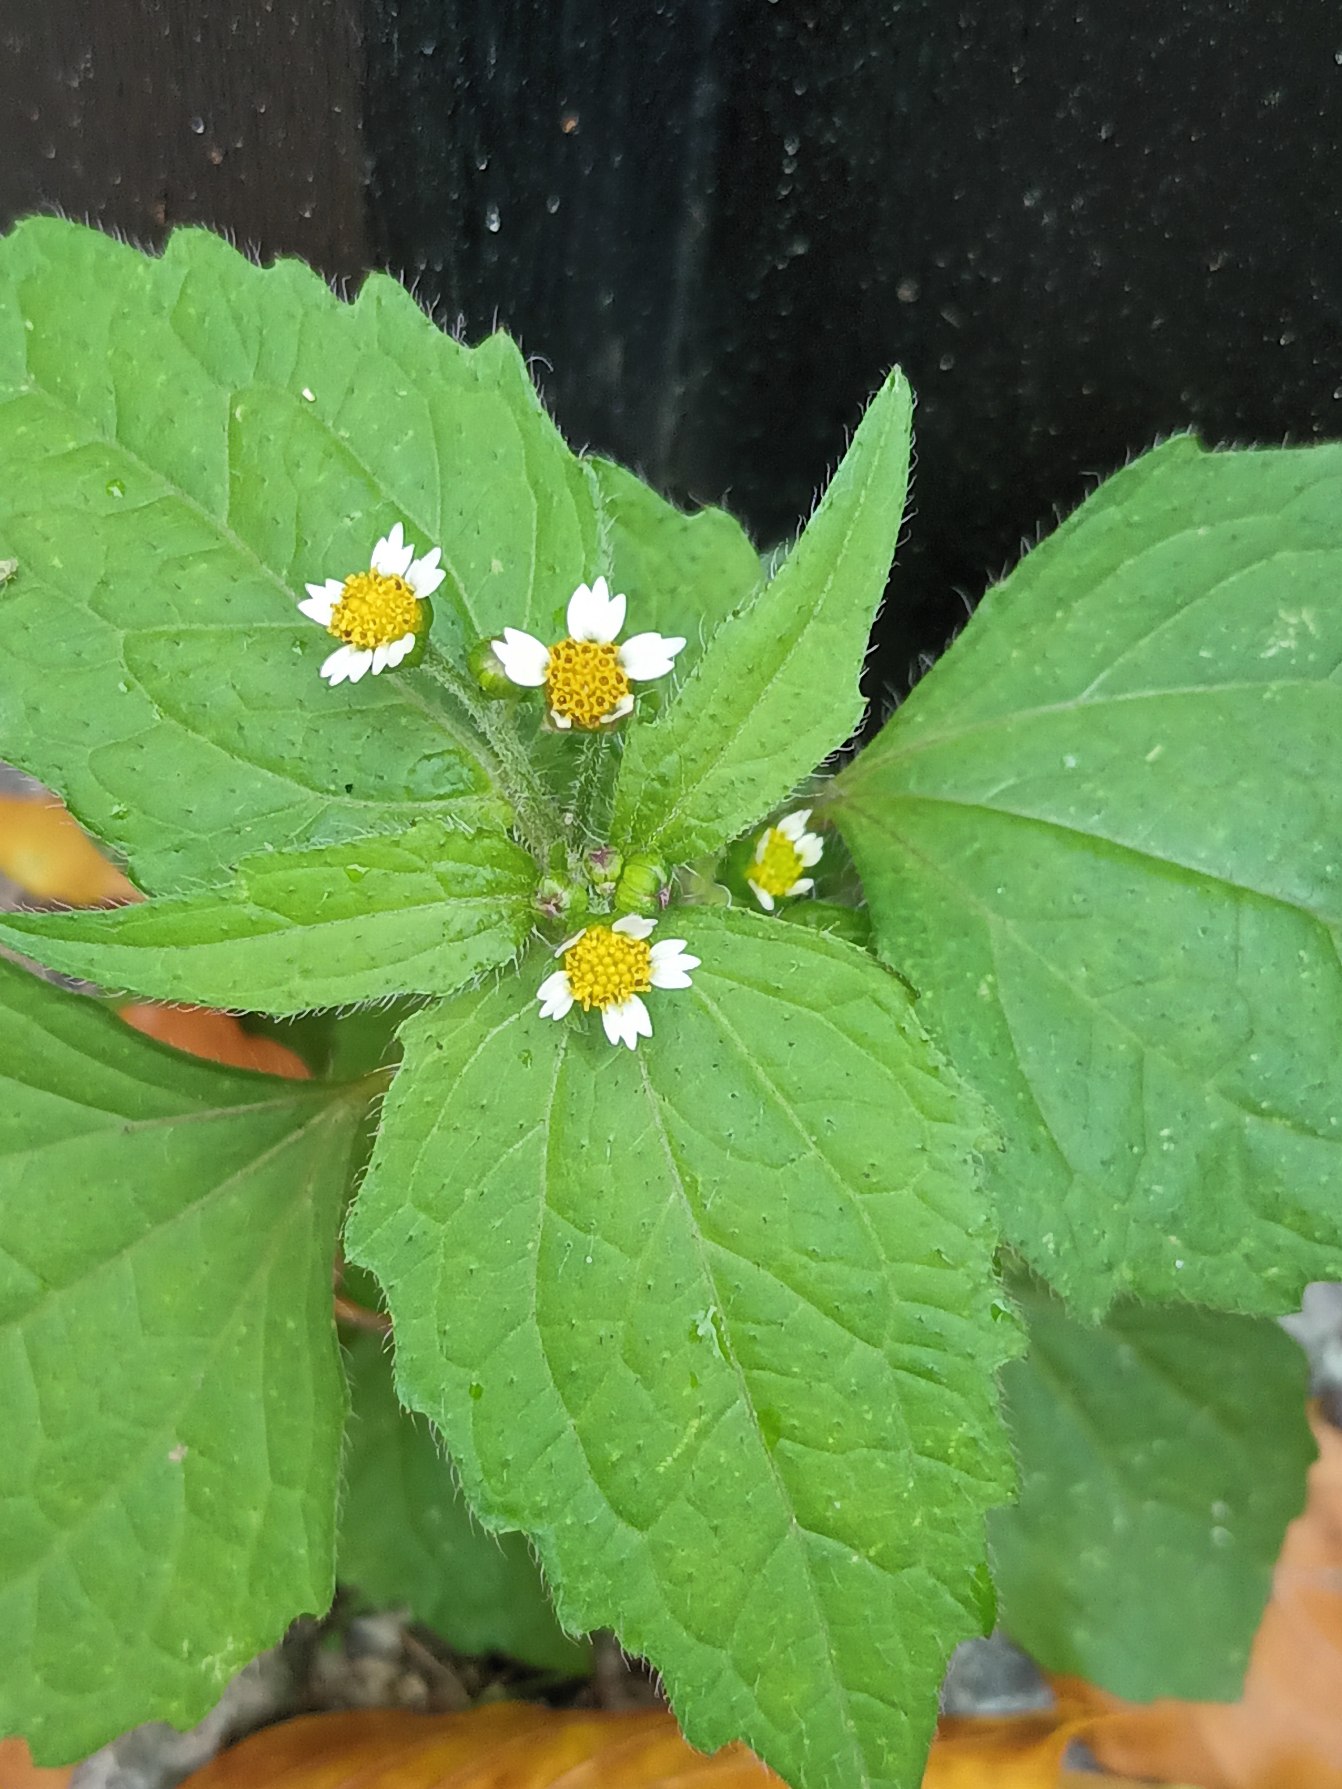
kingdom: Plantae
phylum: Tracheophyta
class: Magnoliopsida
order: Asterales
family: Asteraceae
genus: Galinsoga
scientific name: Galinsoga quadriradiata
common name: Kirtel-kortstråle
